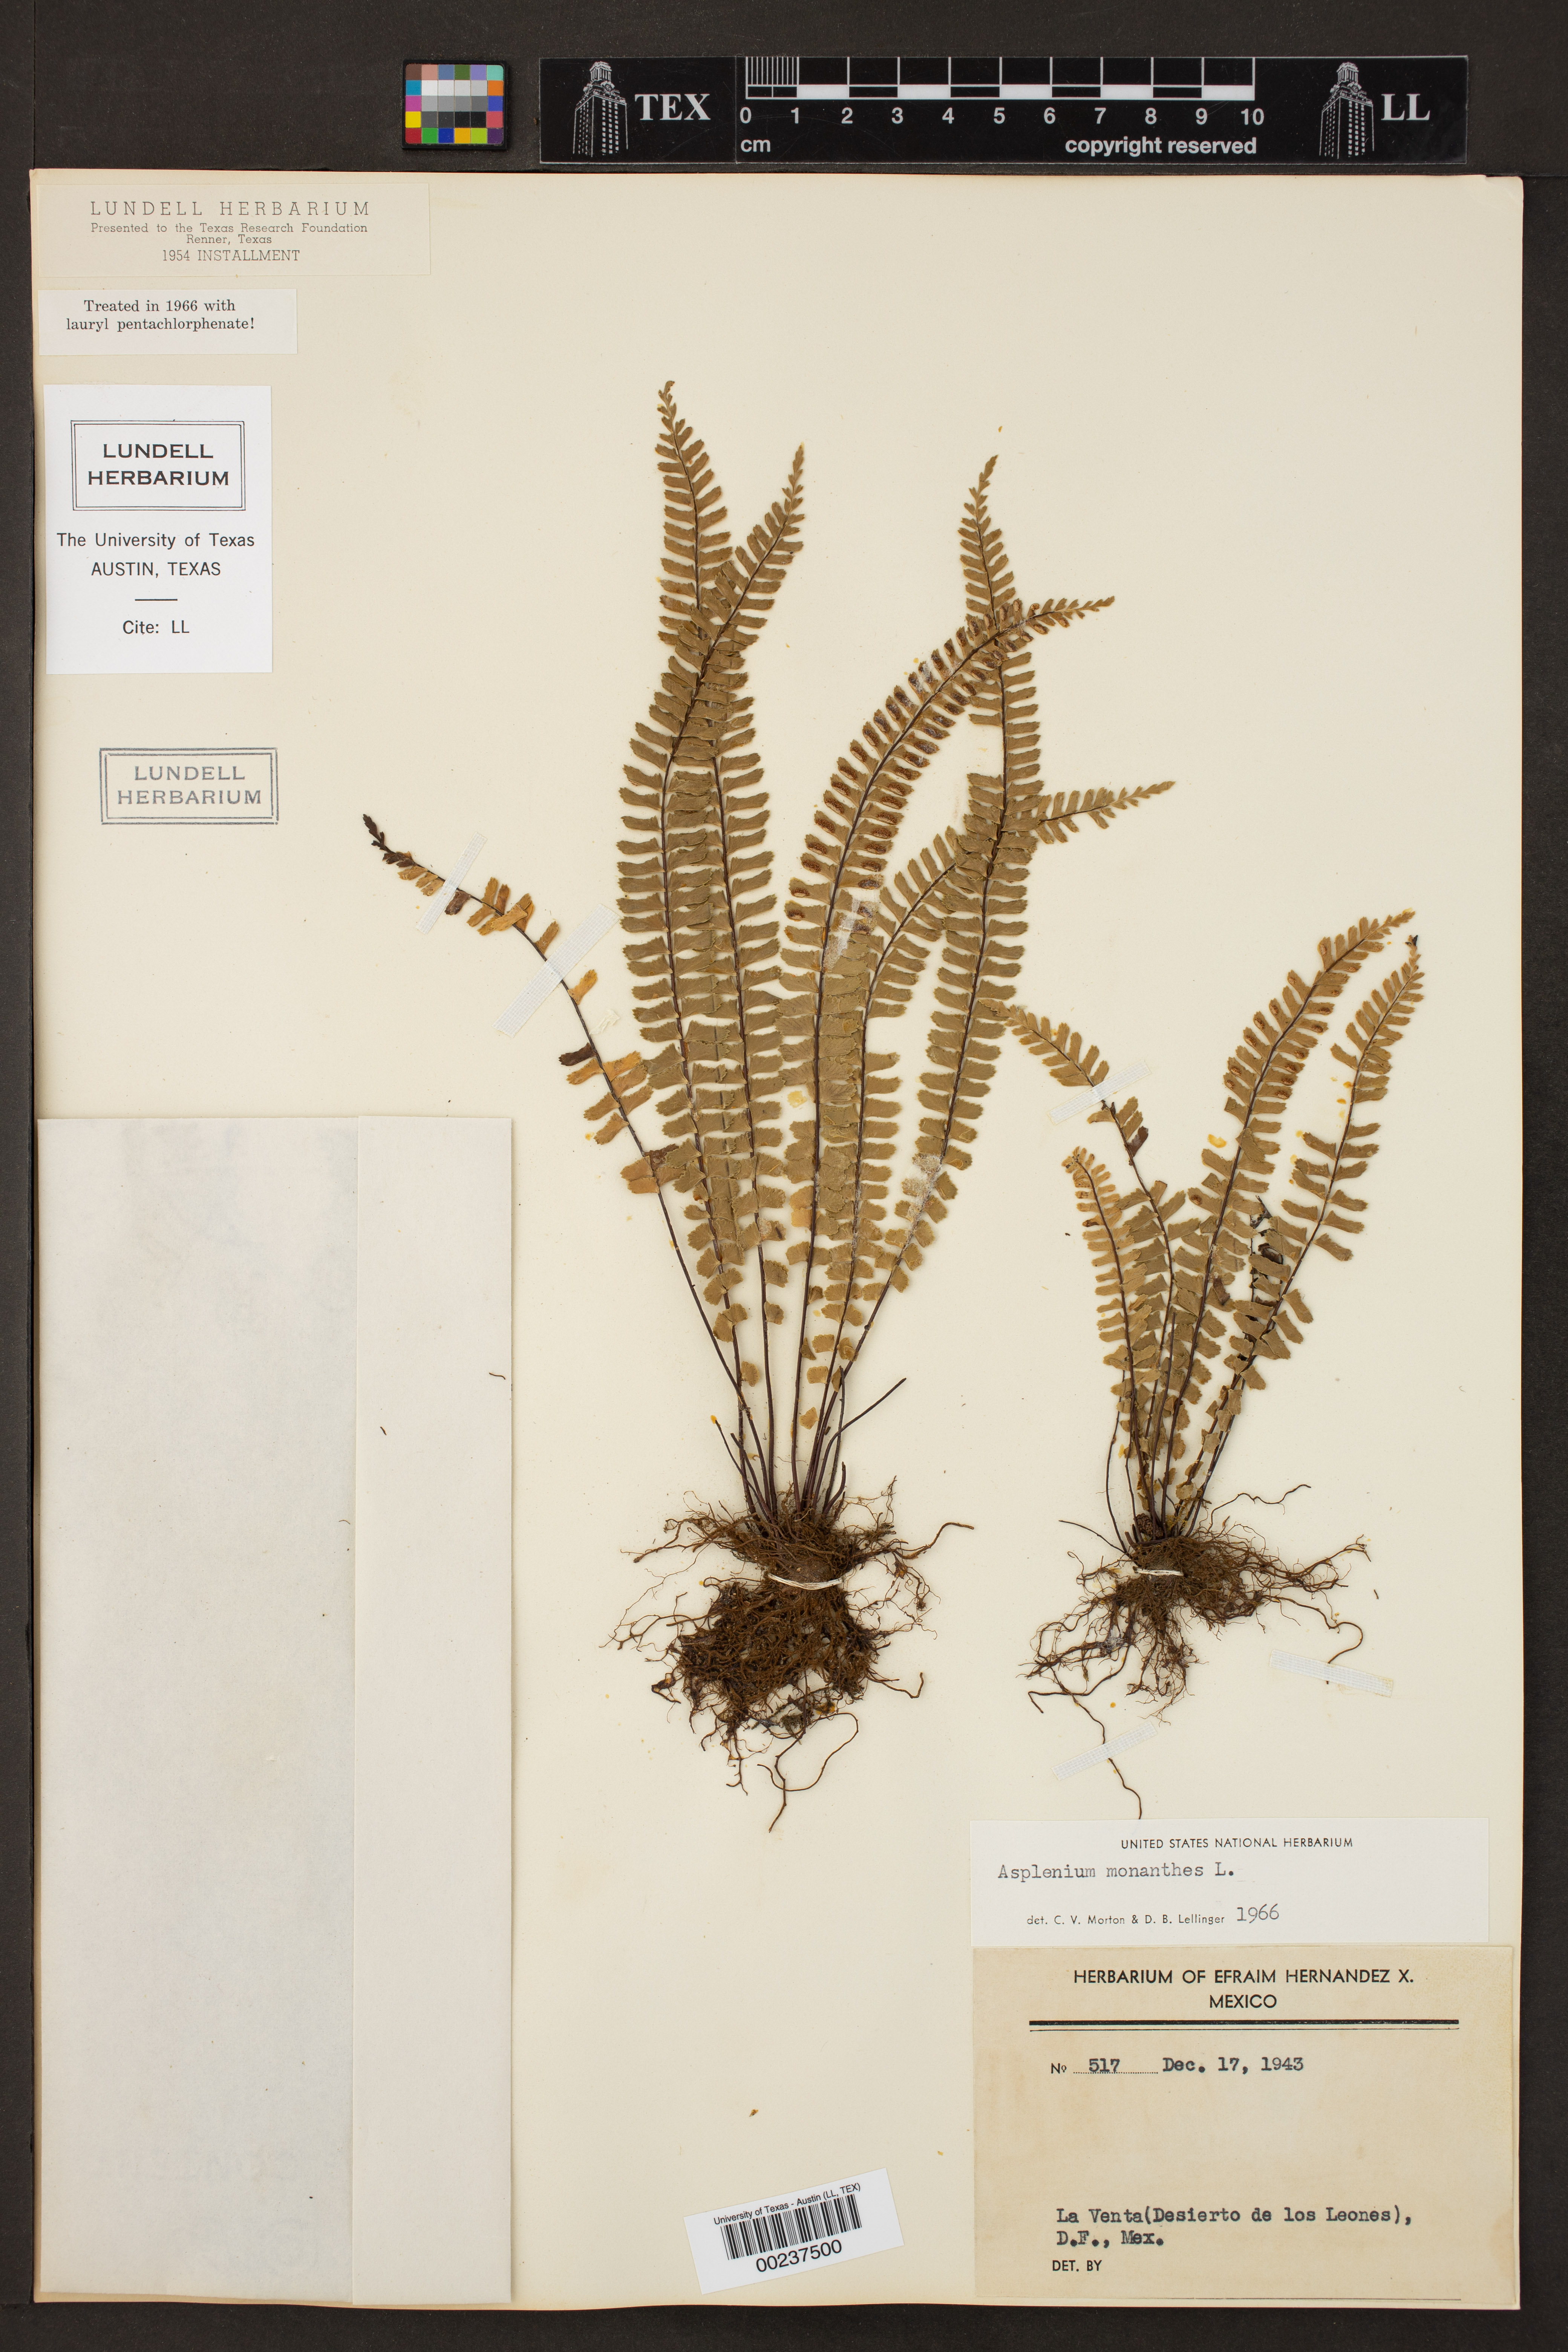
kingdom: Plantae
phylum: Tracheophyta
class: Polypodiopsida
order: Polypodiales
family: Aspleniaceae
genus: Asplenium
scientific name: Asplenium monanthes
